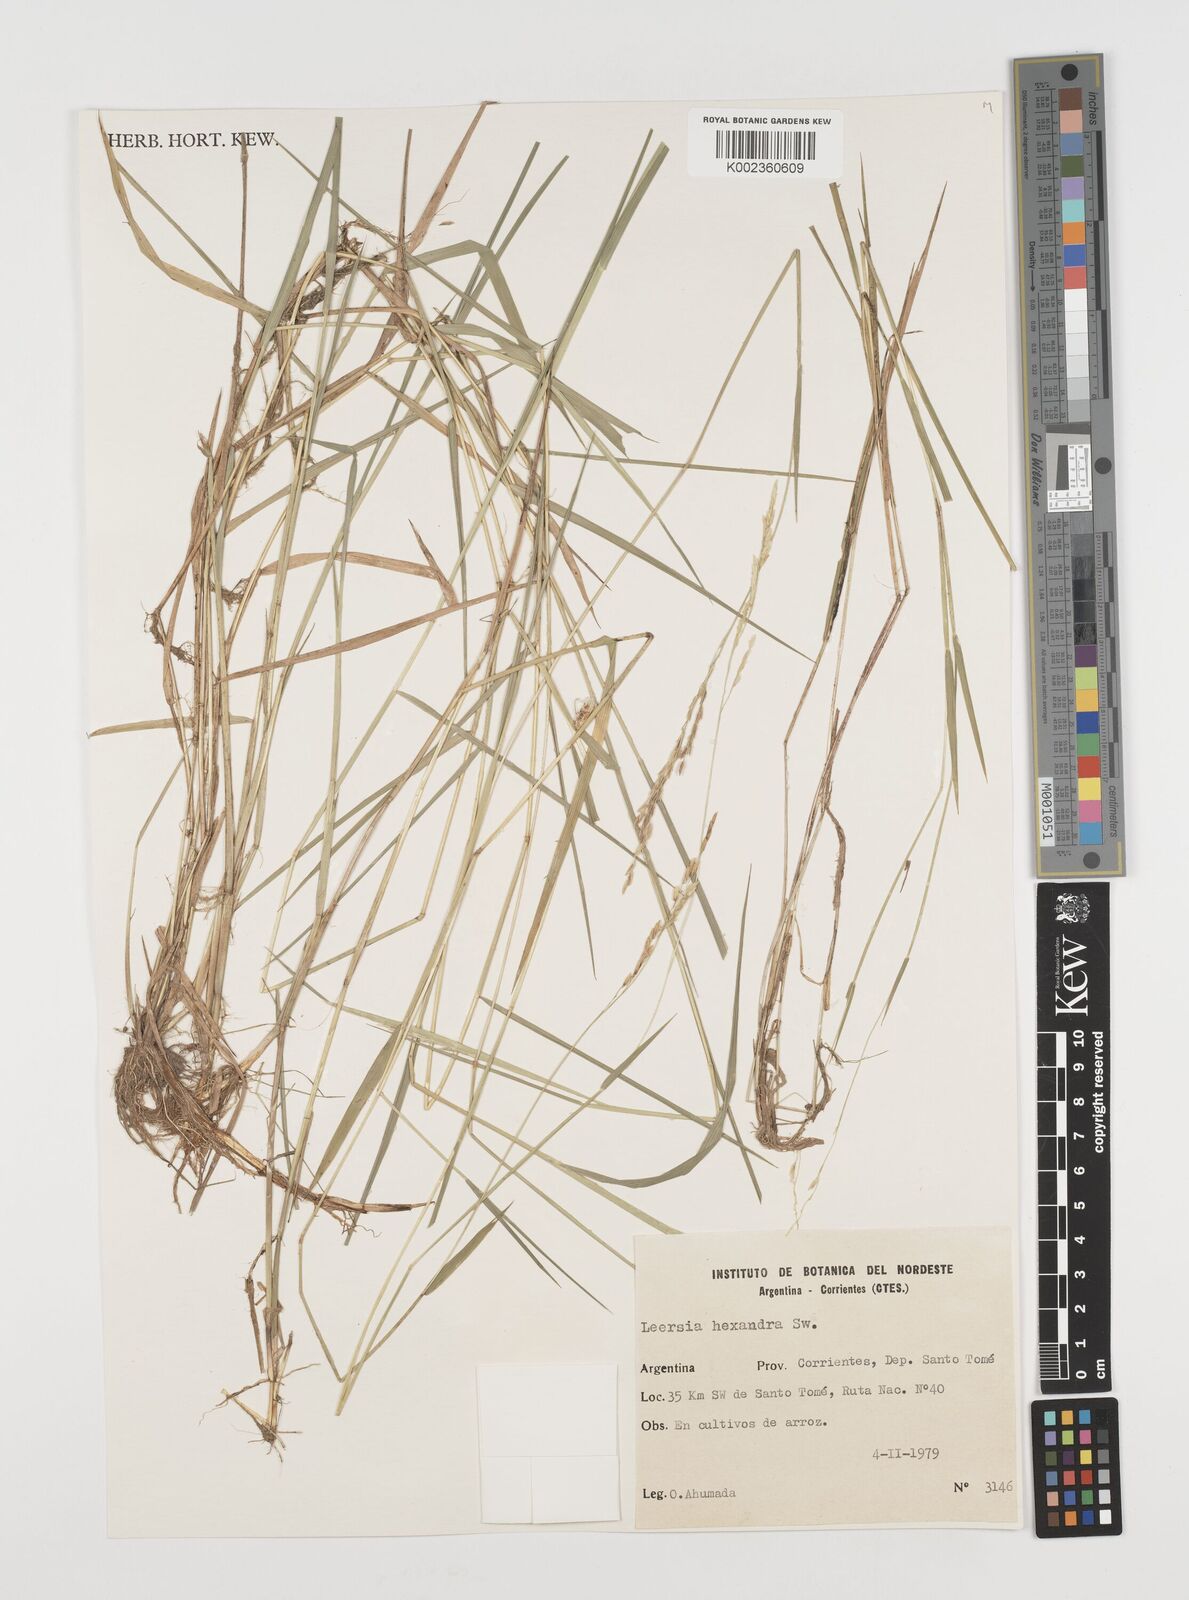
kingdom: Plantae
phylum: Tracheophyta
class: Liliopsida
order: Poales
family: Poaceae
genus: Leersia
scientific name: Leersia hexandra
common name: Southern cut grass
